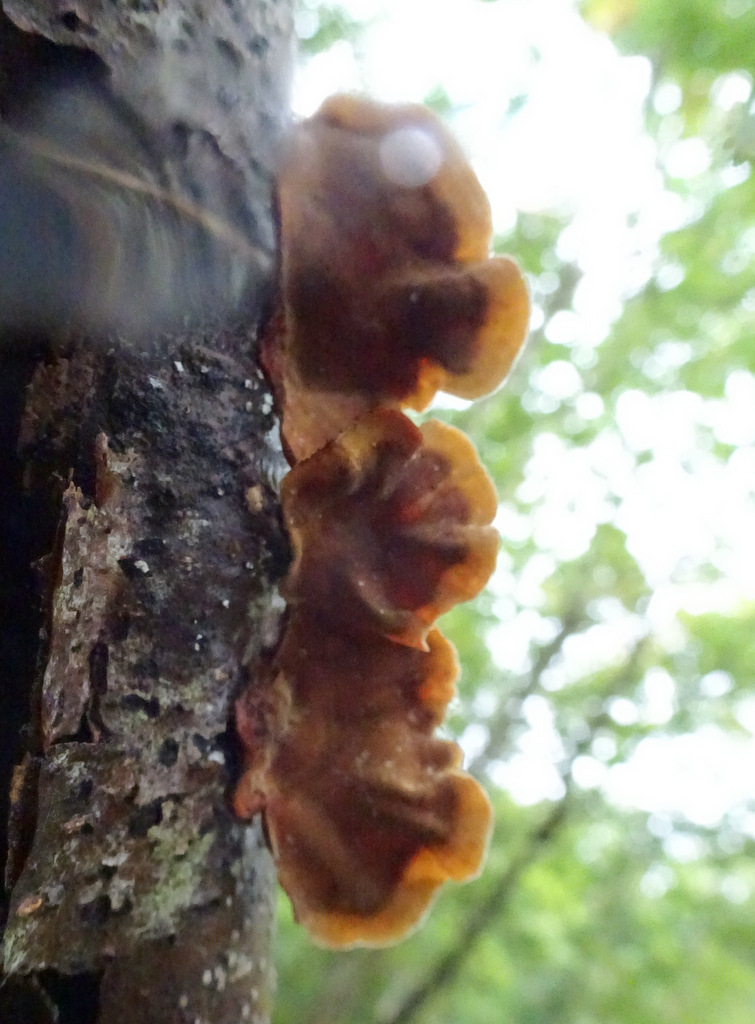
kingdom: Fungi
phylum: Basidiomycota
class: Agaricomycetes
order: Russulales
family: Stereaceae
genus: Stereum
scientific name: Stereum subtomentosum
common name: smuk lædersvamp
